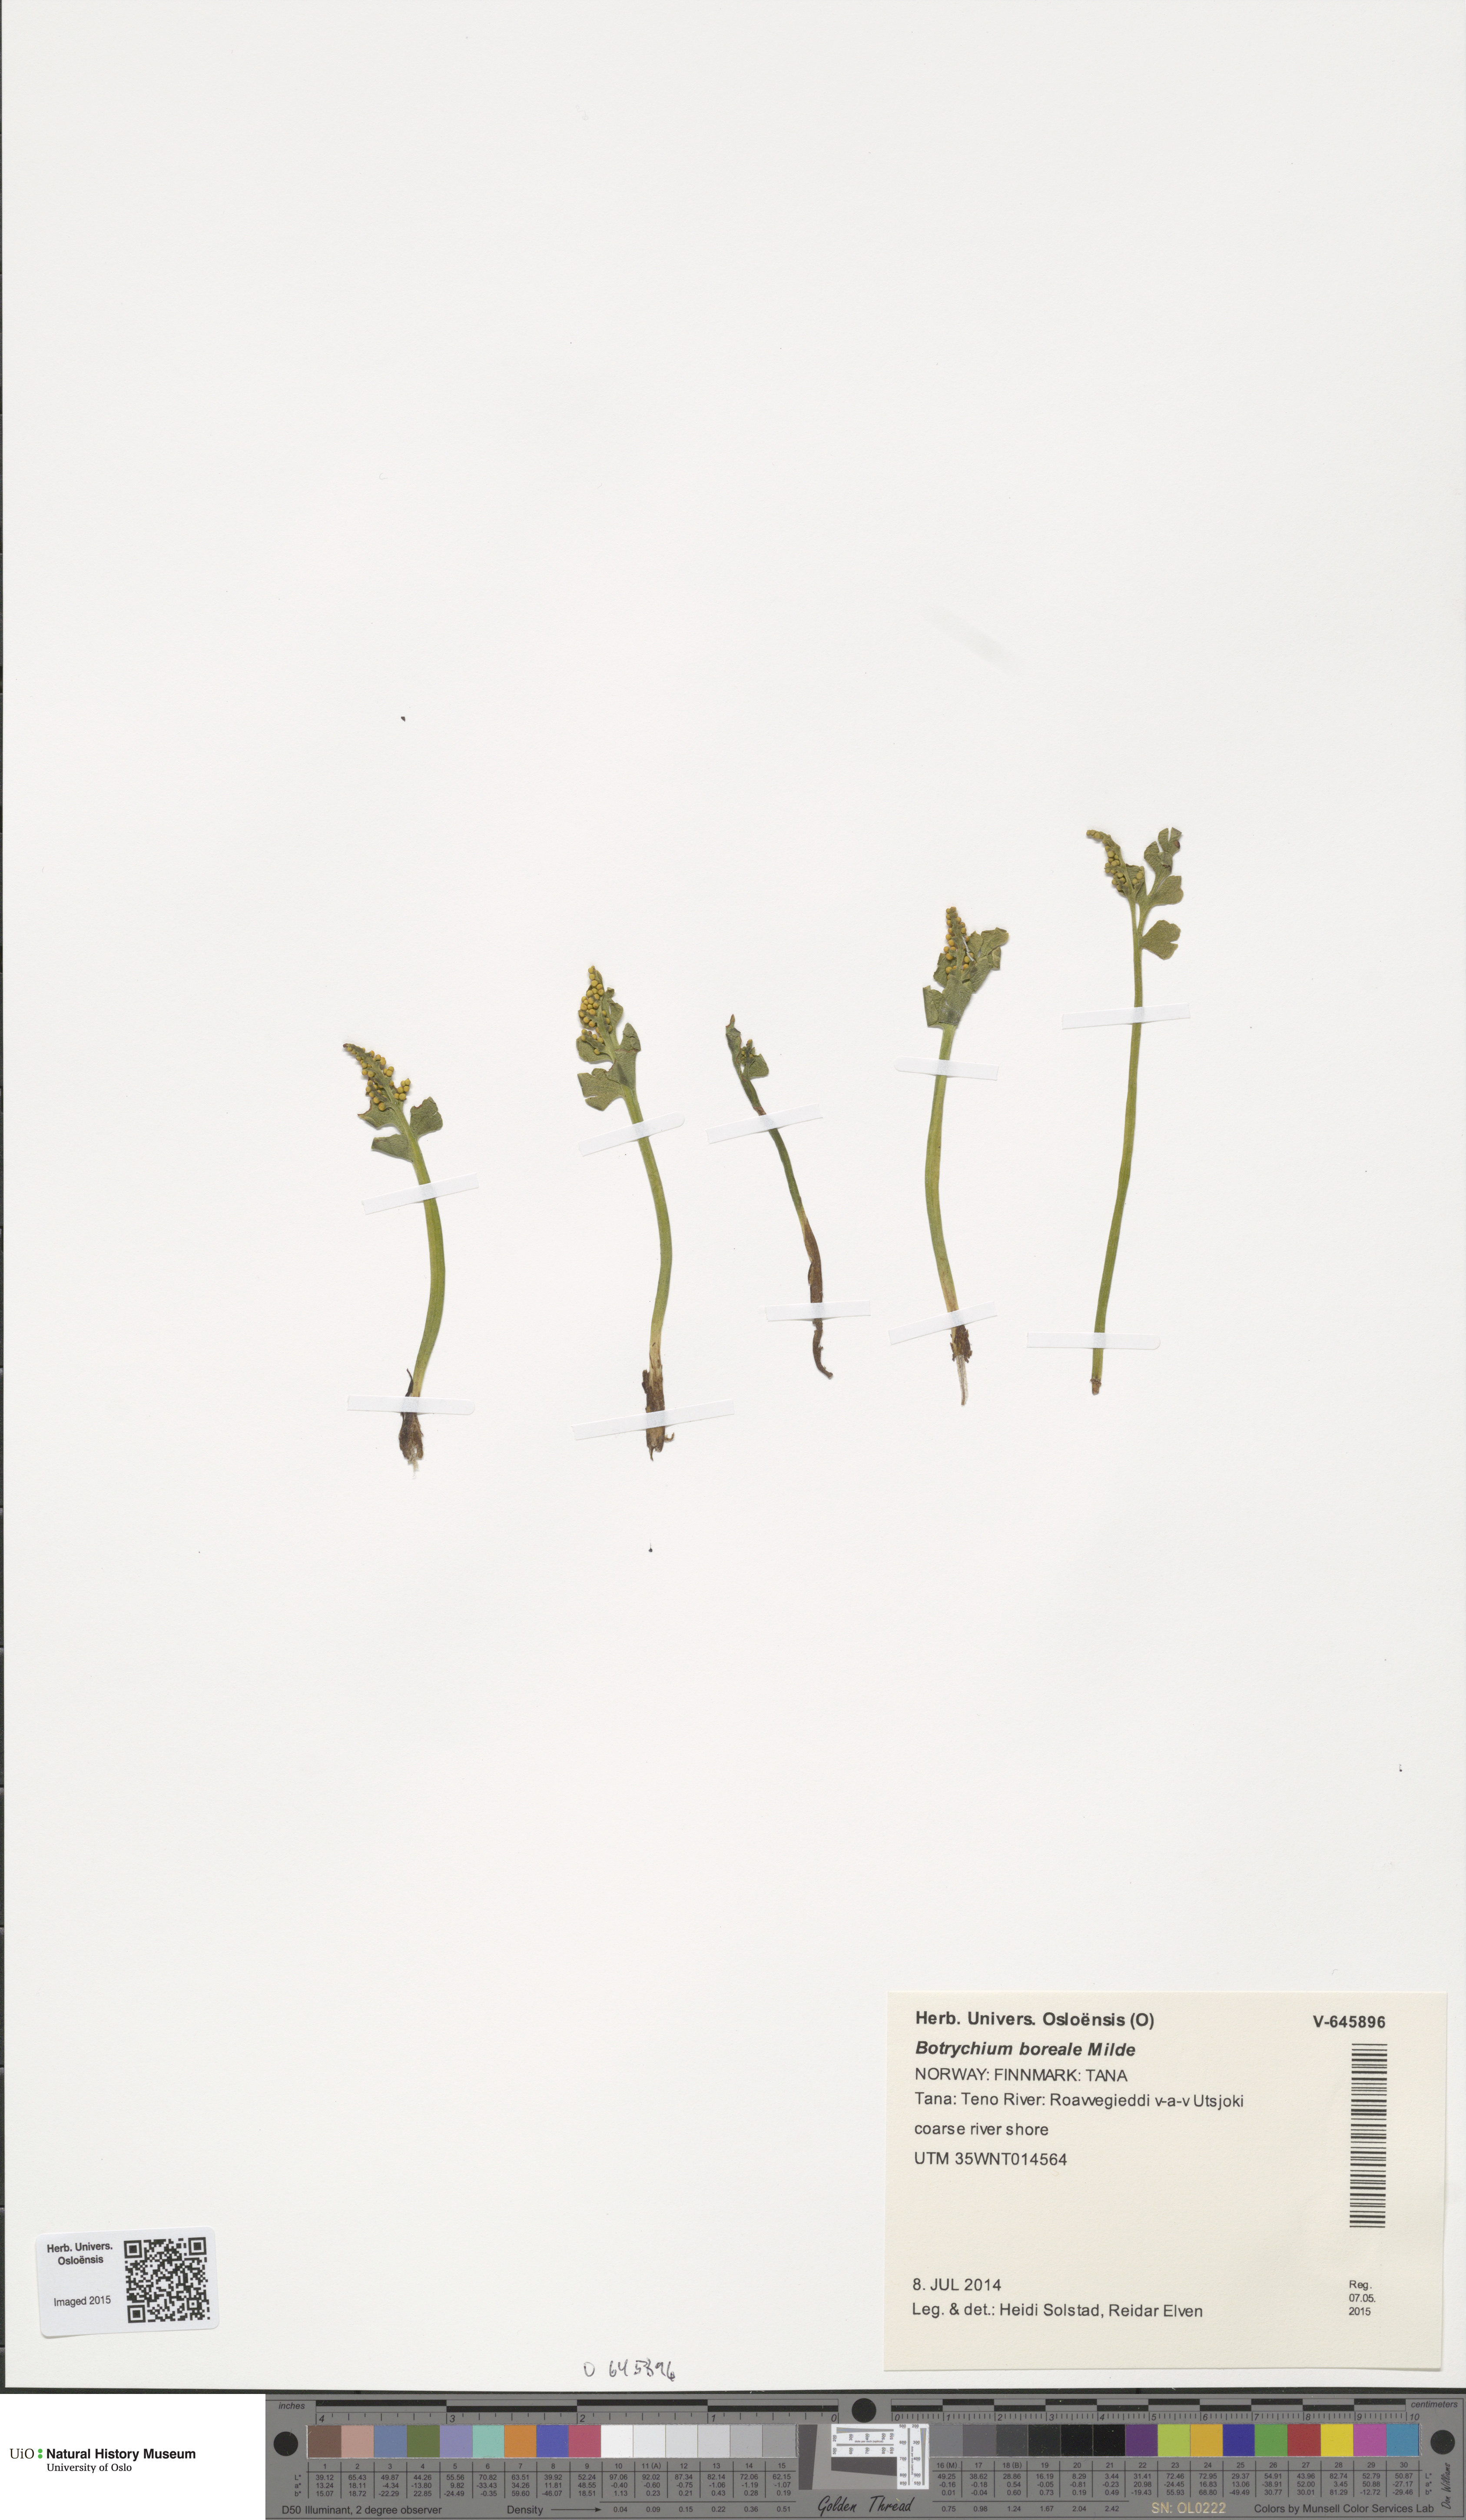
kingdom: Plantae
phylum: Tracheophyta
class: Polypodiopsida
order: Ophioglossales
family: Ophioglossaceae
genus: Botrychium
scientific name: Botrychium boreale
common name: Boreal moonwort
